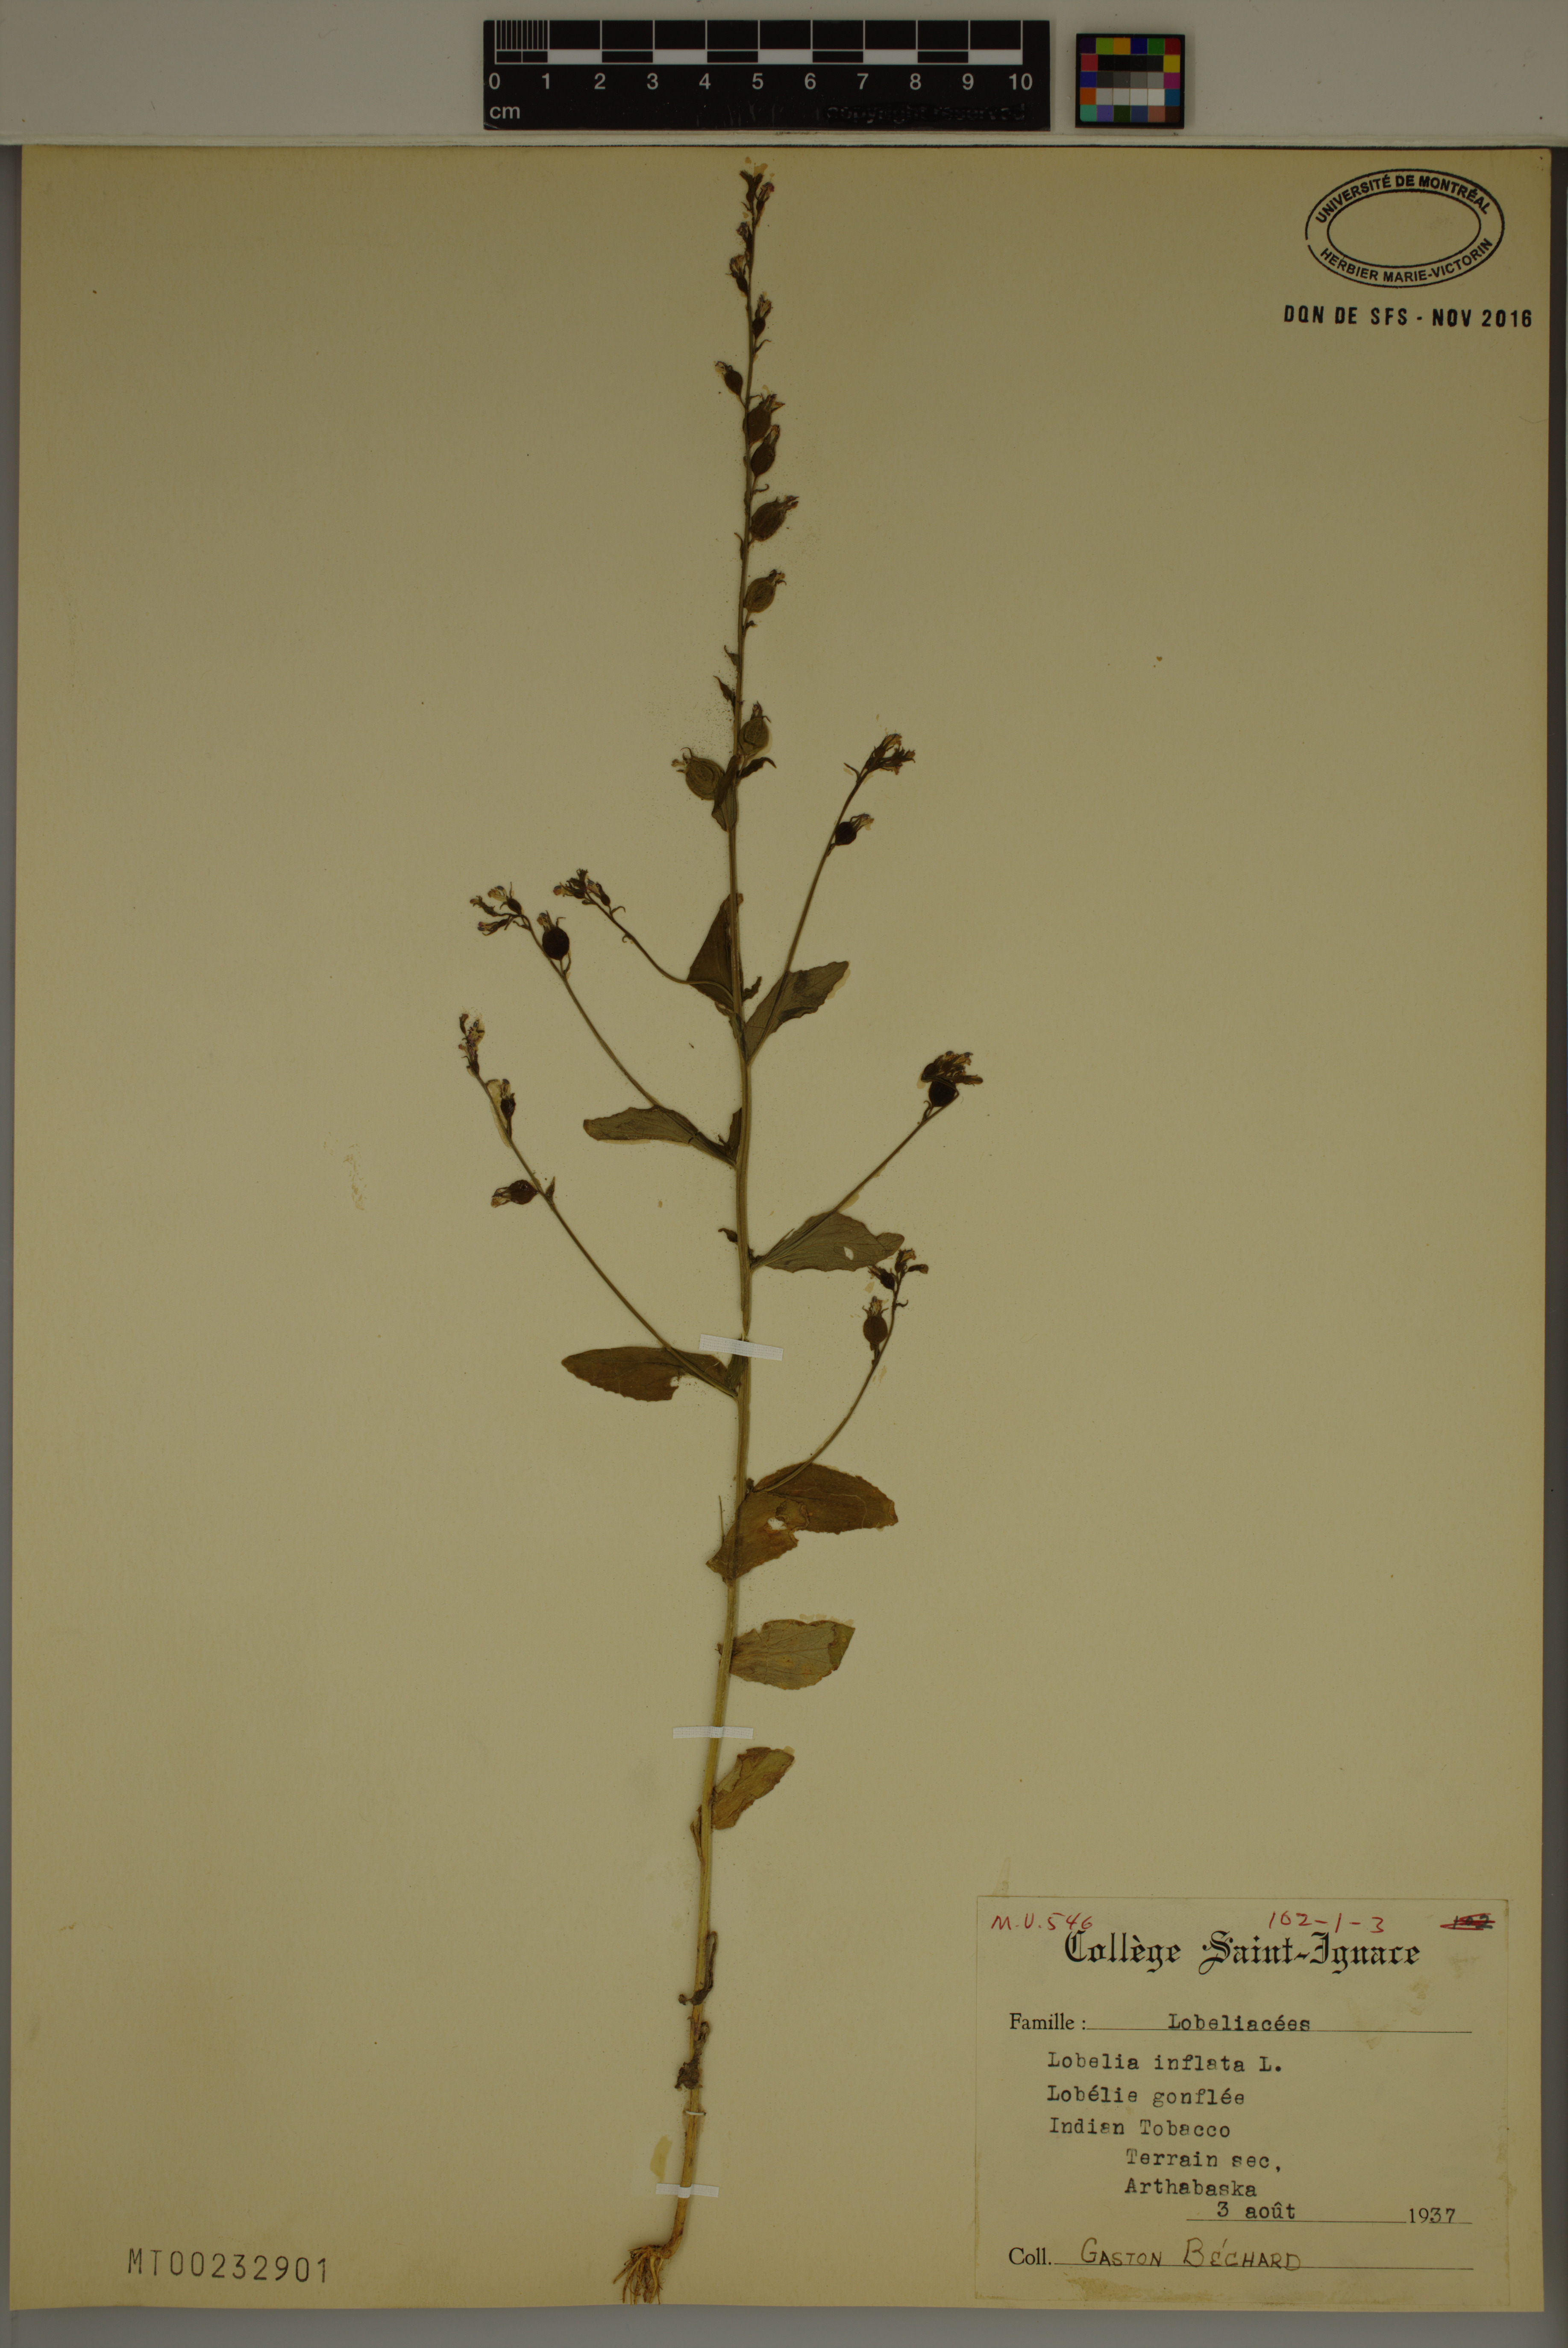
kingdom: Plantae
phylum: Tracheophyta
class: Magnoliopsida
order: Asterales
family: Campanulaceae
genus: Lobelia
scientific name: Lobelia inflata
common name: Indian tobacco
